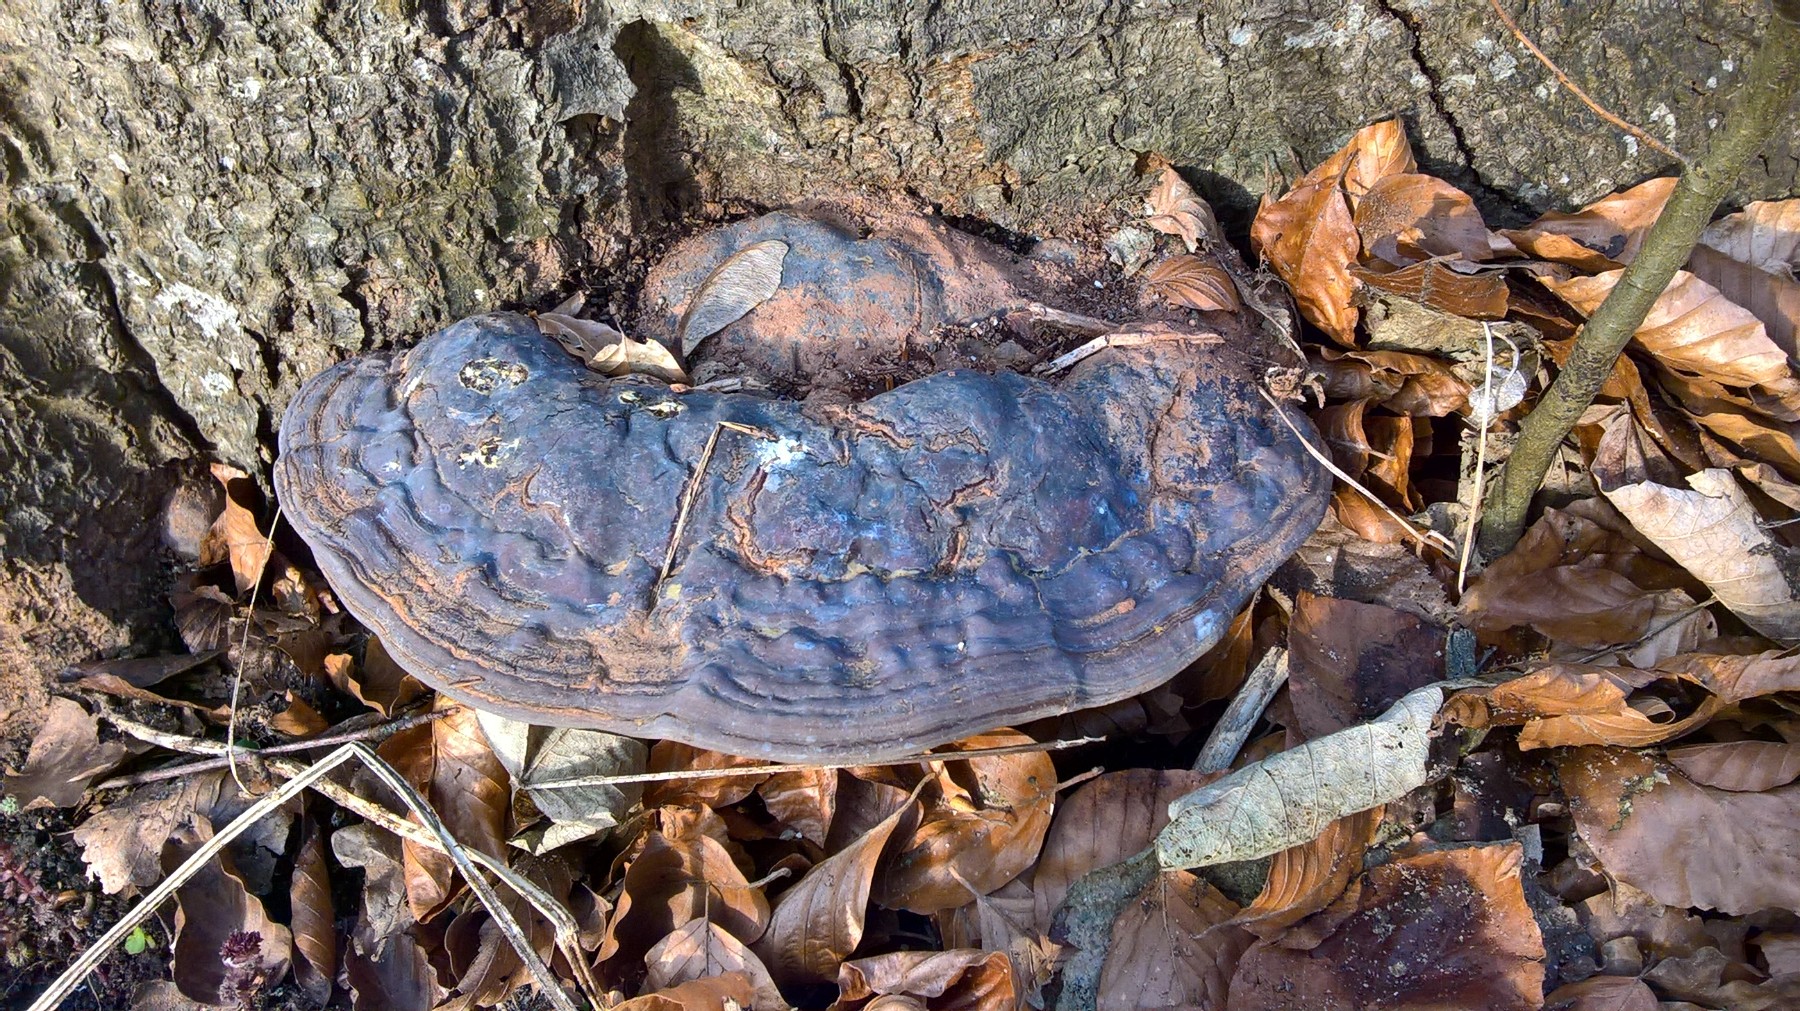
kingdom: Fungi
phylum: Basidiomycota
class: Agaricomycetes
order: Polyporales
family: Polyporaceae
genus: Ganoderma
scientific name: Ganoderma pfeifferi
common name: kobberrød lakporesvamp
